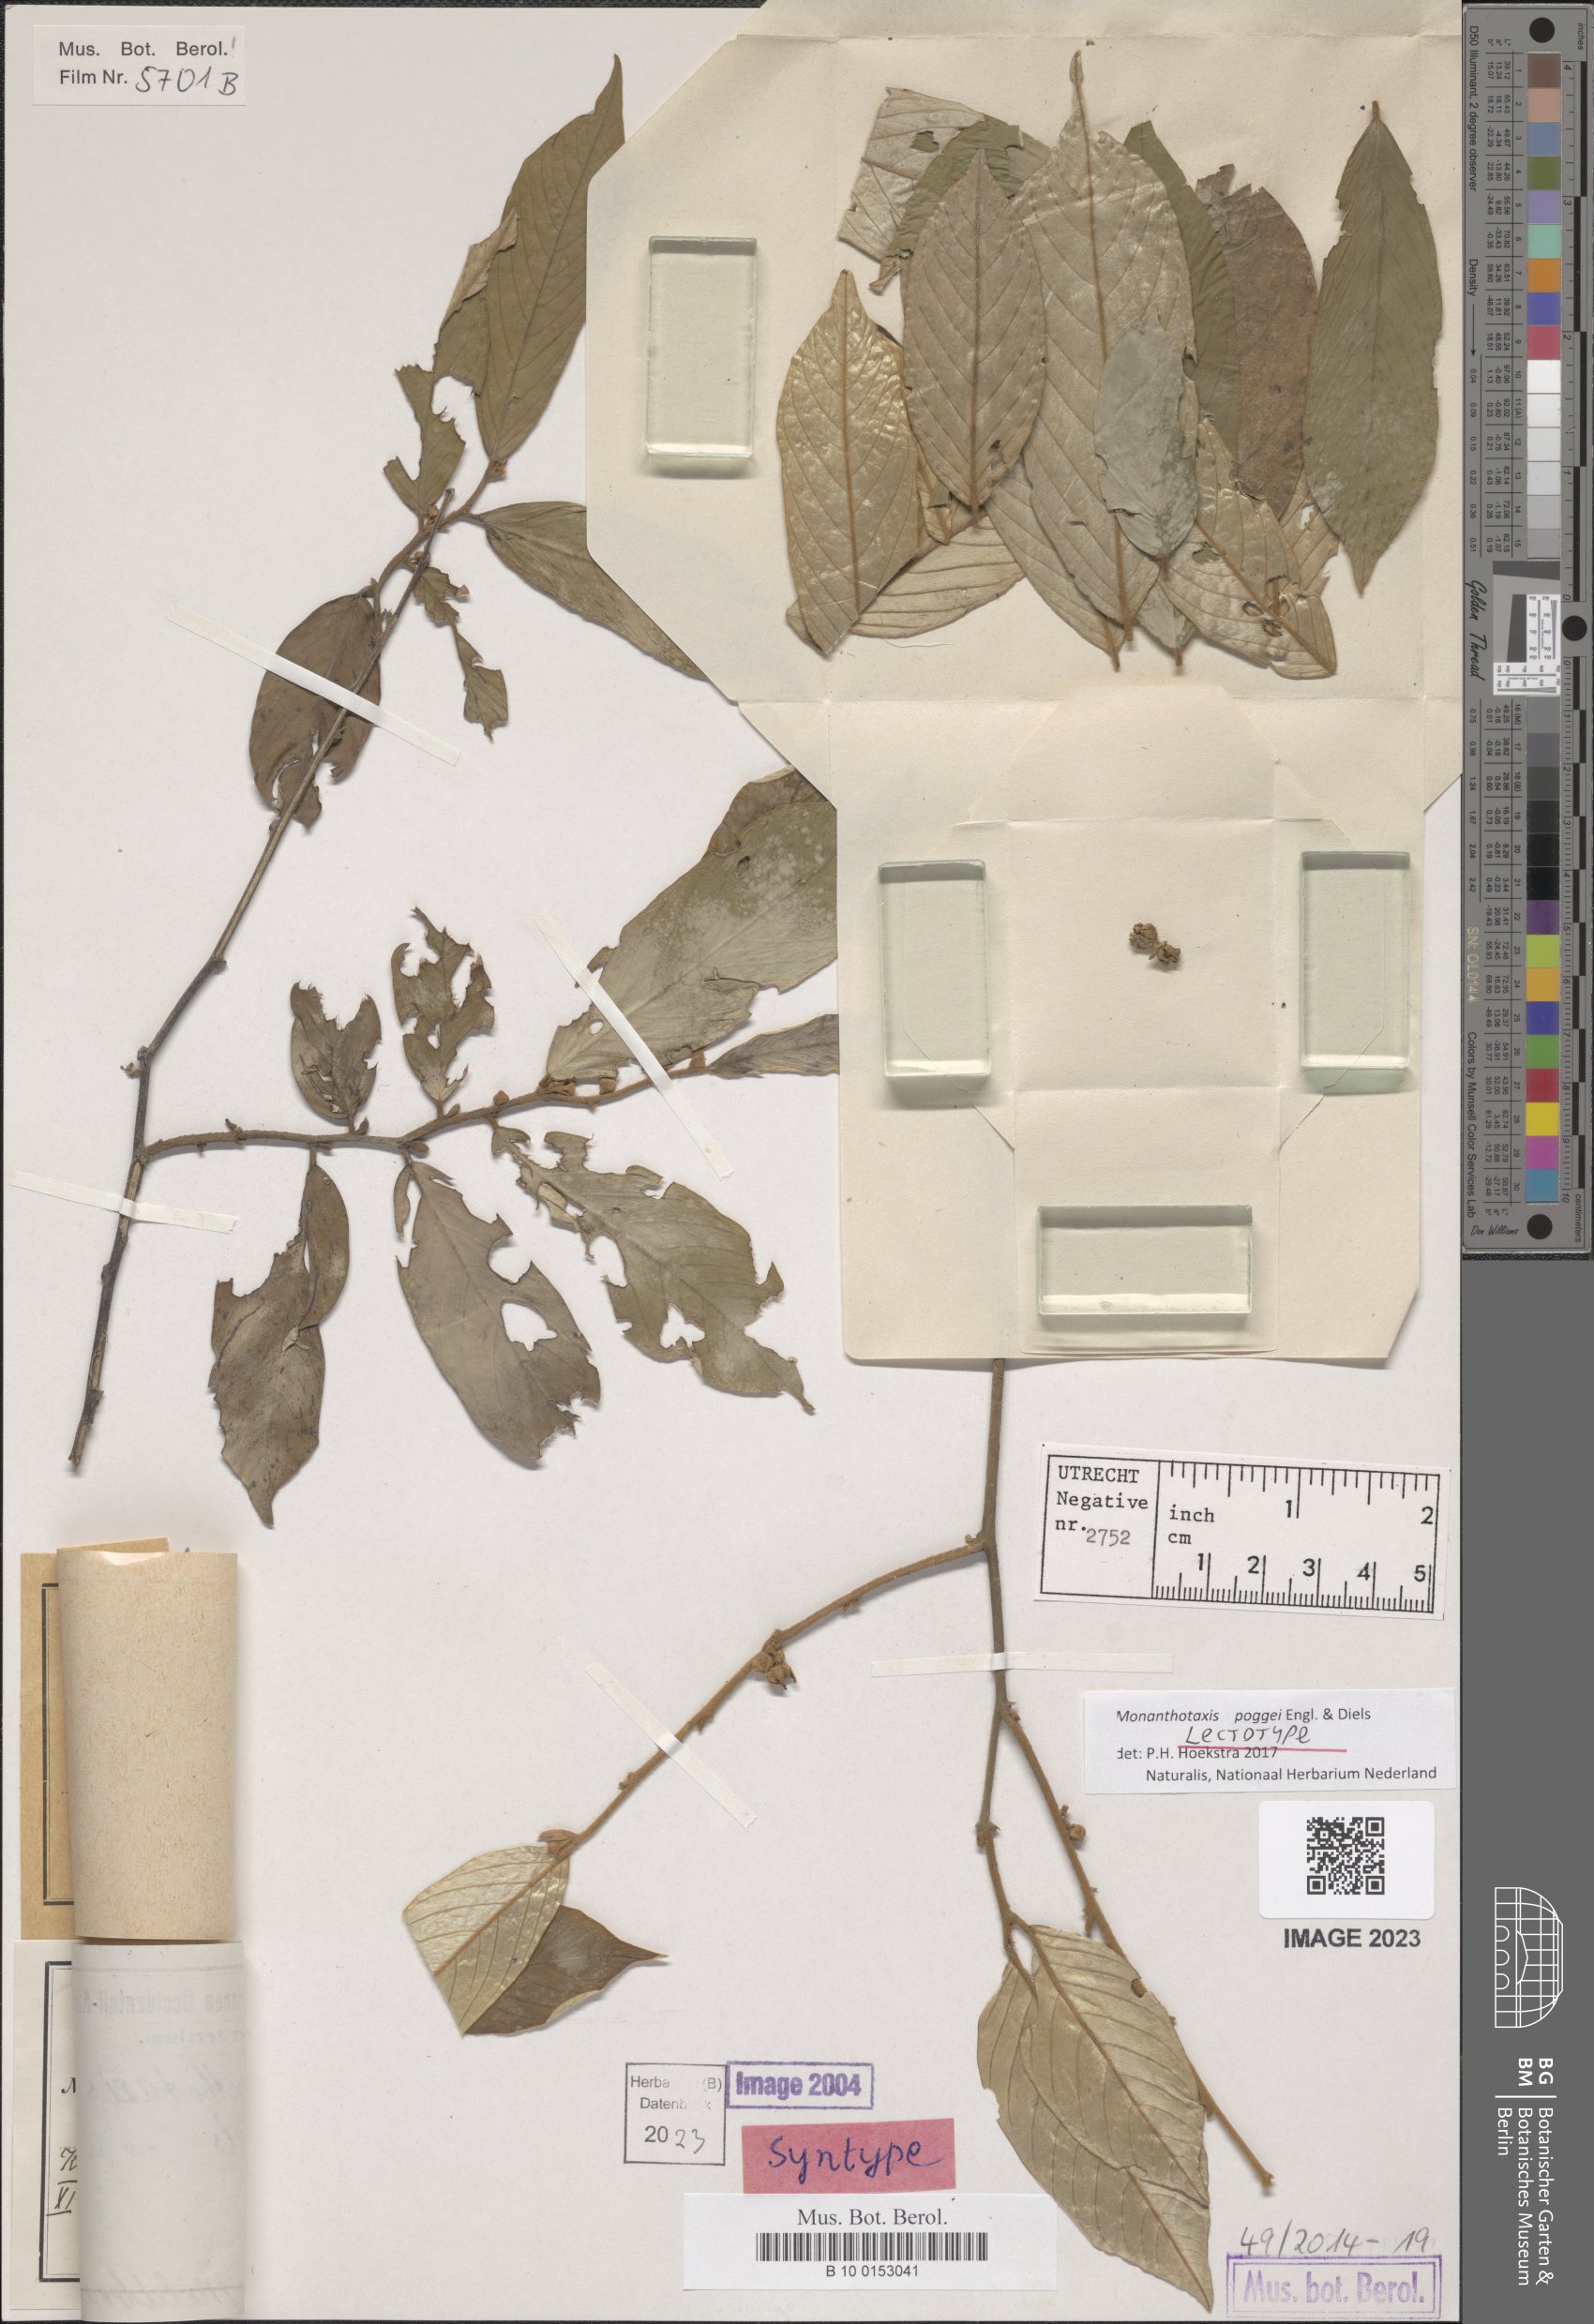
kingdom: Plantae
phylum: Tracheophyta
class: Magnoliopsida
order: Magnoliales
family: Annonaceae
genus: Monanthotaxis
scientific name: Monanthotaxis poggei
